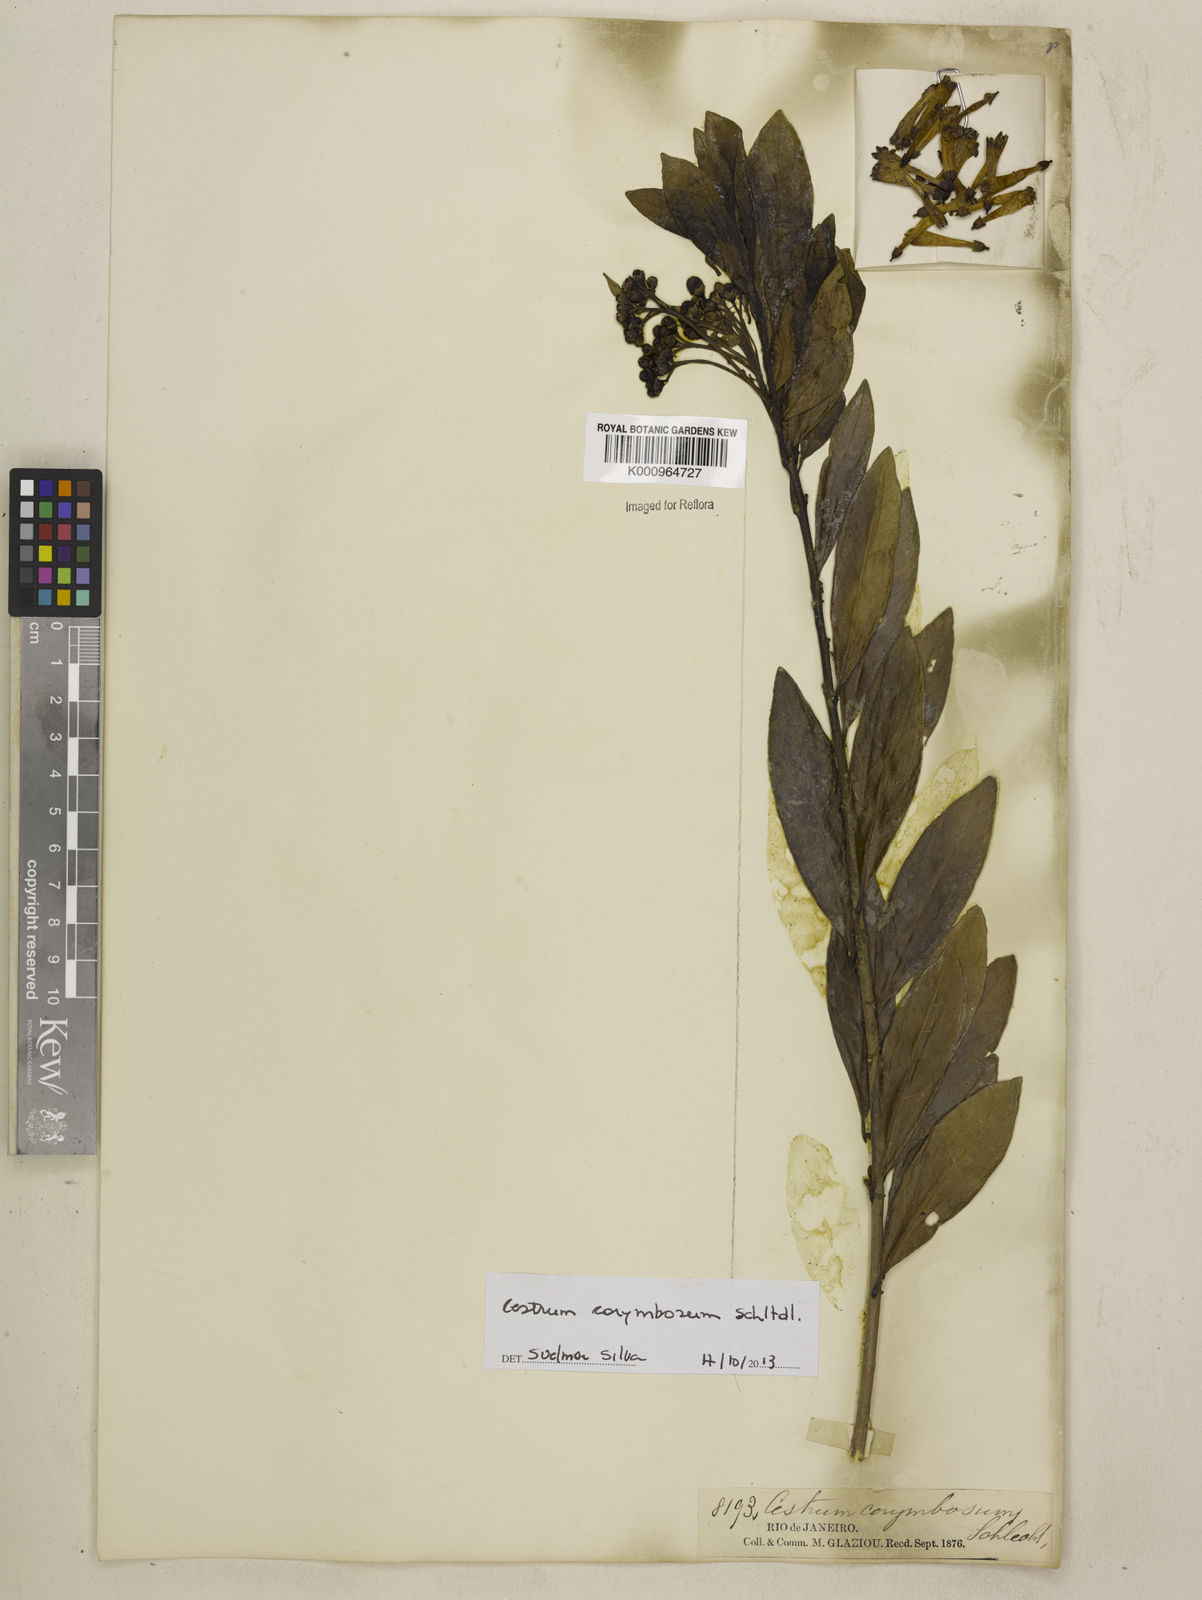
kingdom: Plantae
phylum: Tracheophyta
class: Magnoliopsida
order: Solanales
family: Solanaceae
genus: Cestrum
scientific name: Cestrum corymbosum
